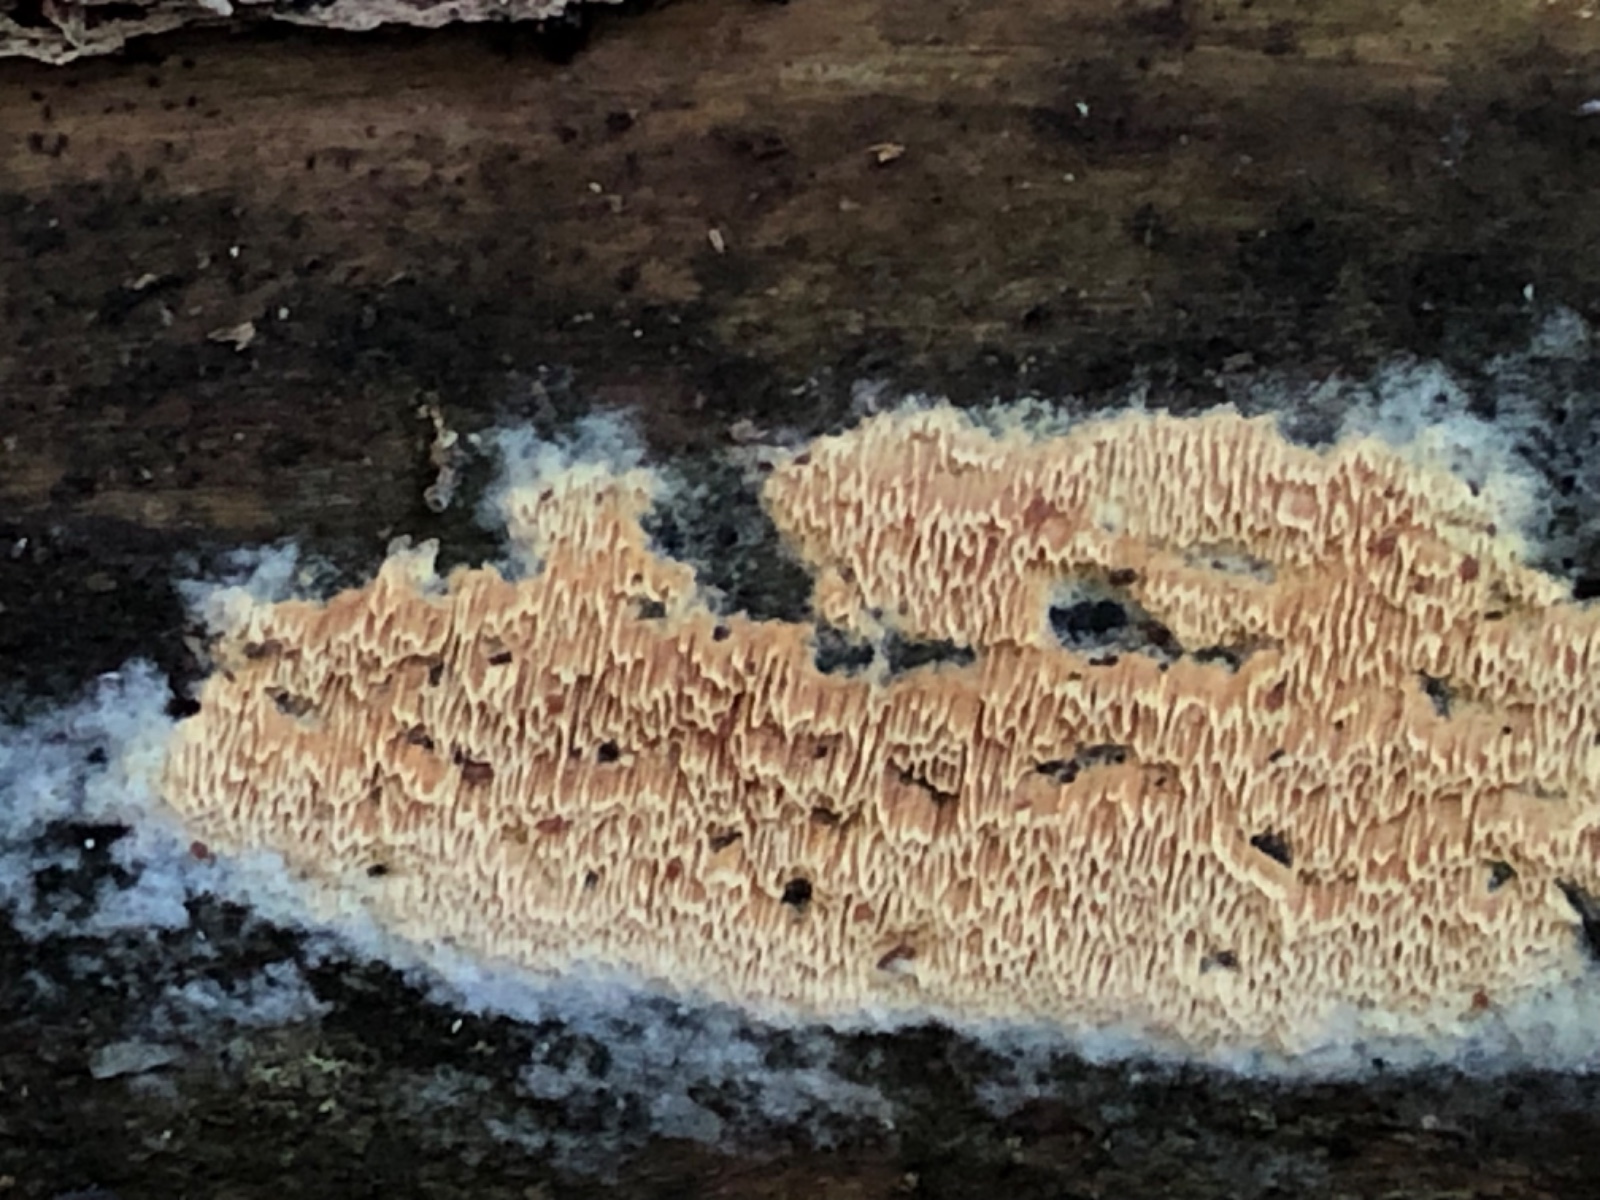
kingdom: Fungi
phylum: Basidiomycota
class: Agaricomycetes
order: Polyporales
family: Irpicaceae
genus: Ceriporia
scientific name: Ceriporia purpurea
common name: purpur-voksporesvamp
